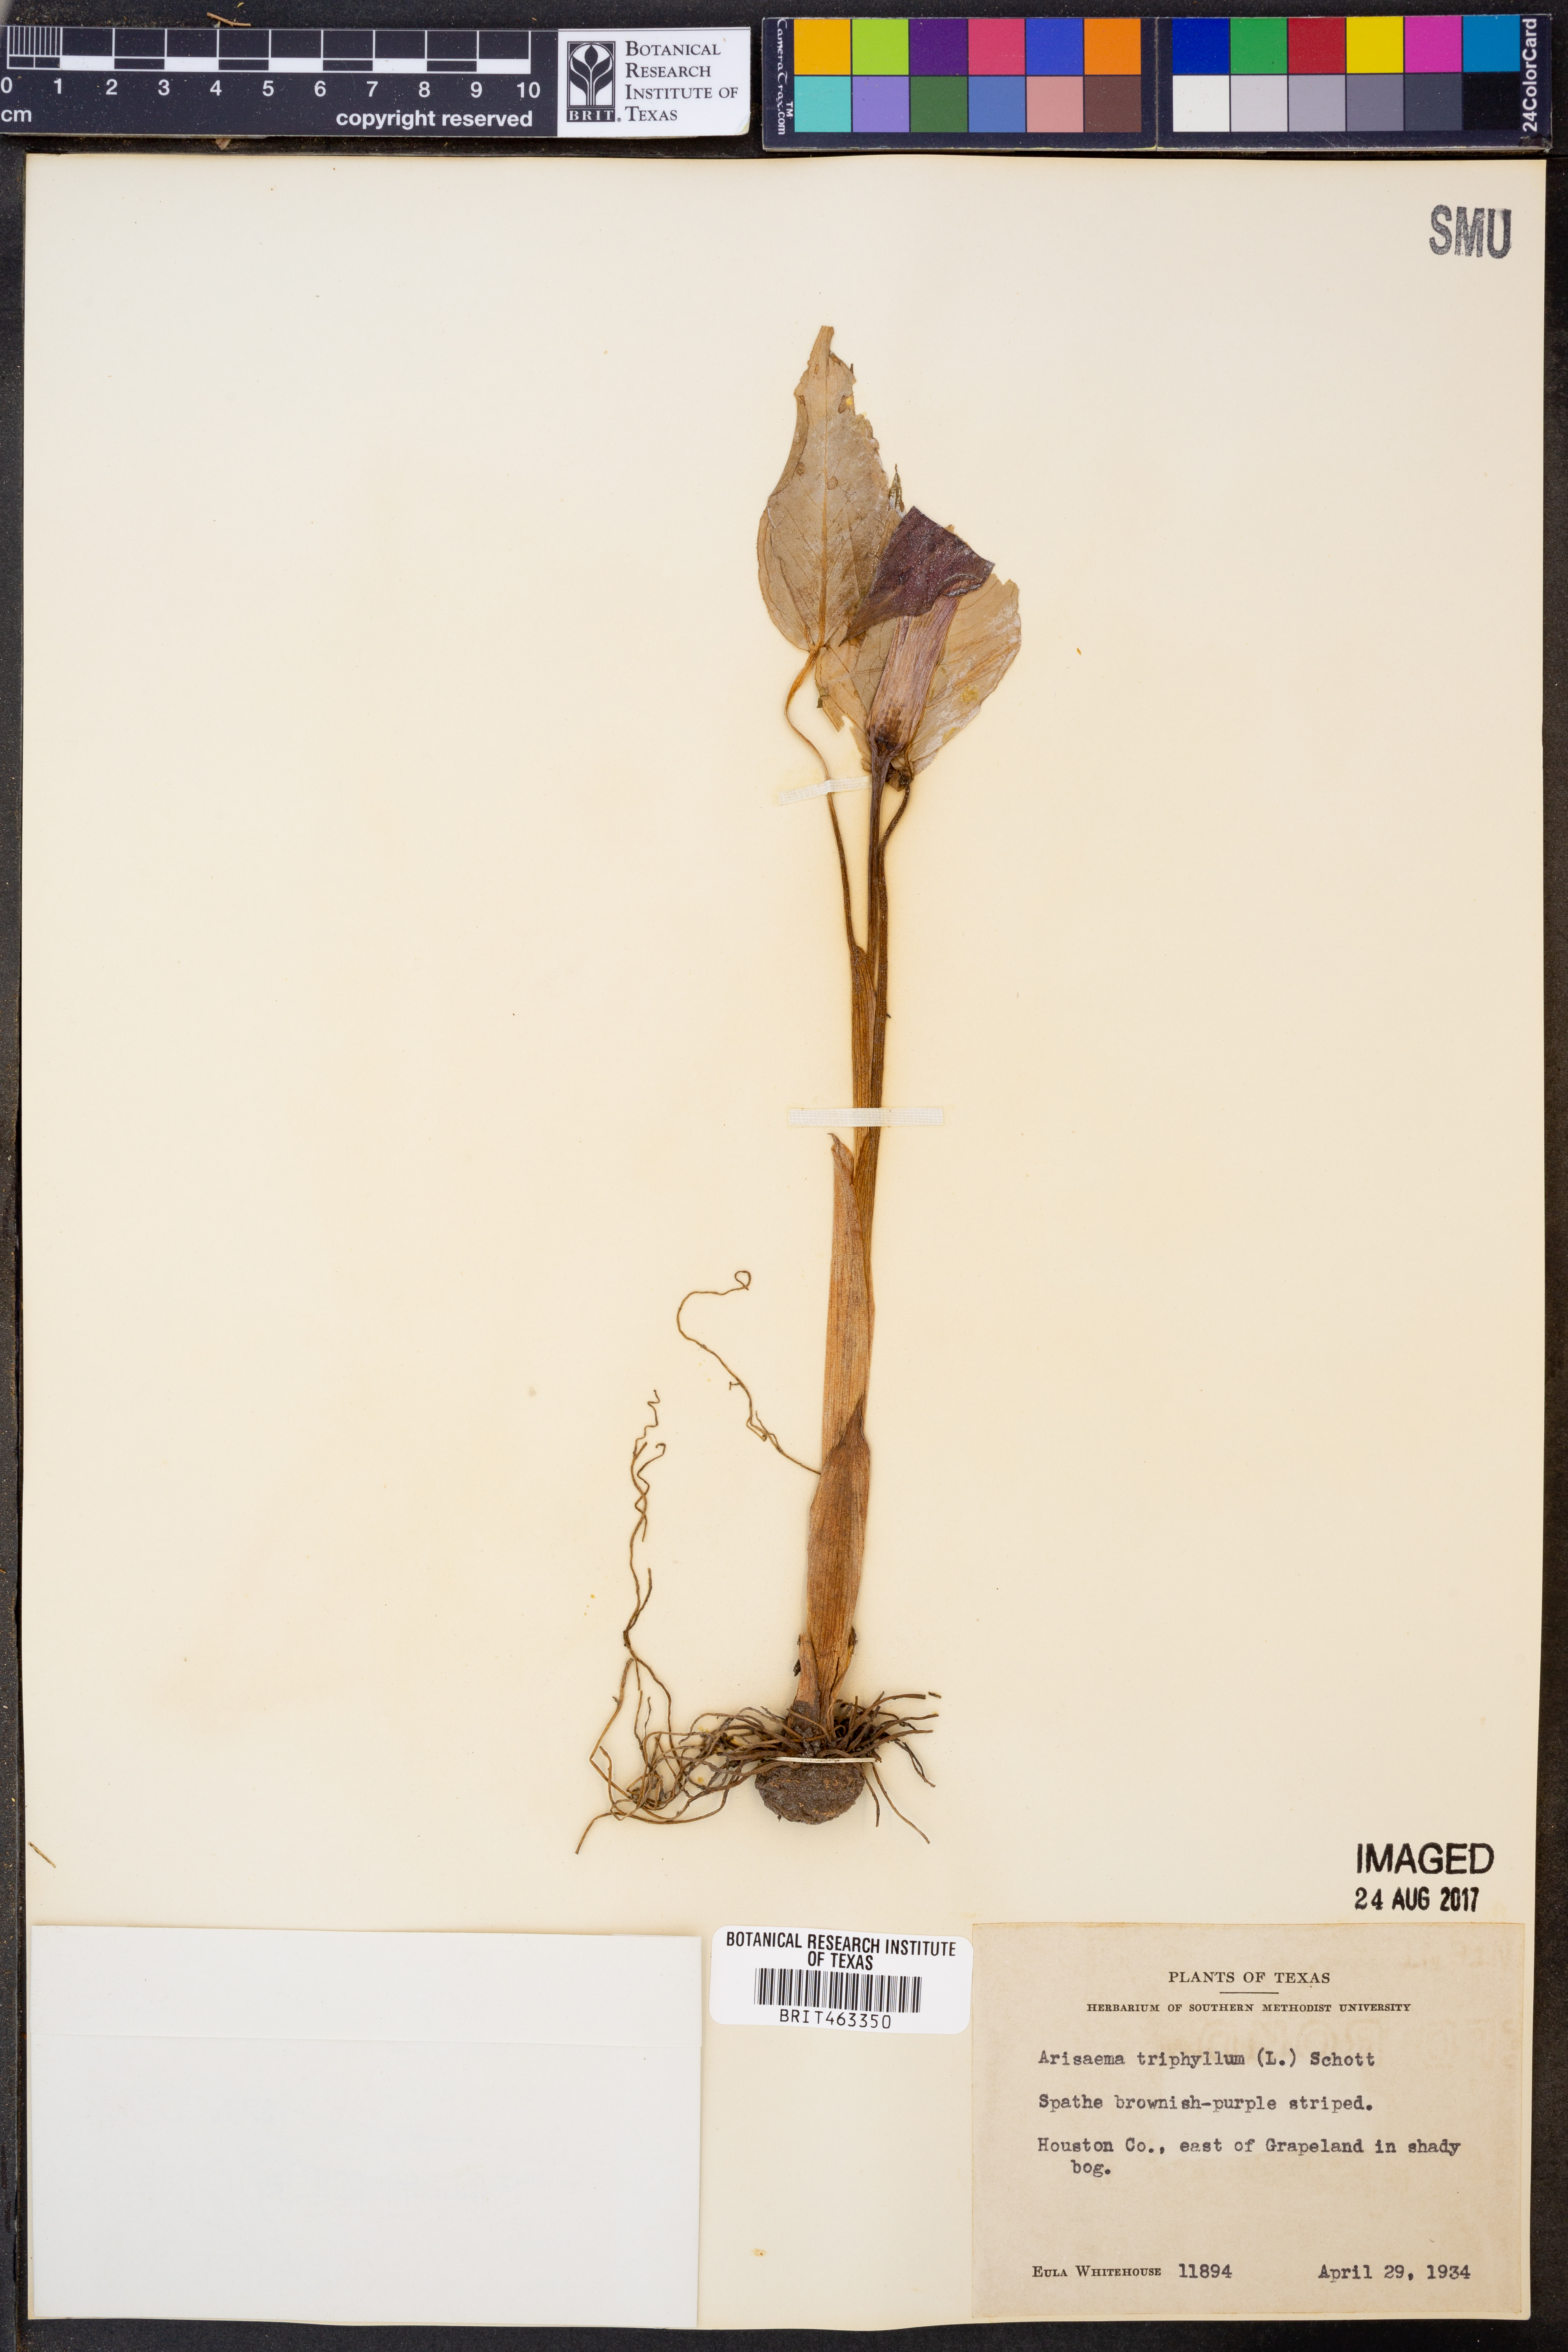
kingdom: Plantae
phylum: Tracheophyta
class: Liliopsida
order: Alismatales
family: Araceae
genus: Arisaema
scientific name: Arisaema triphyllum
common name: Jack-in-the-pulpit
